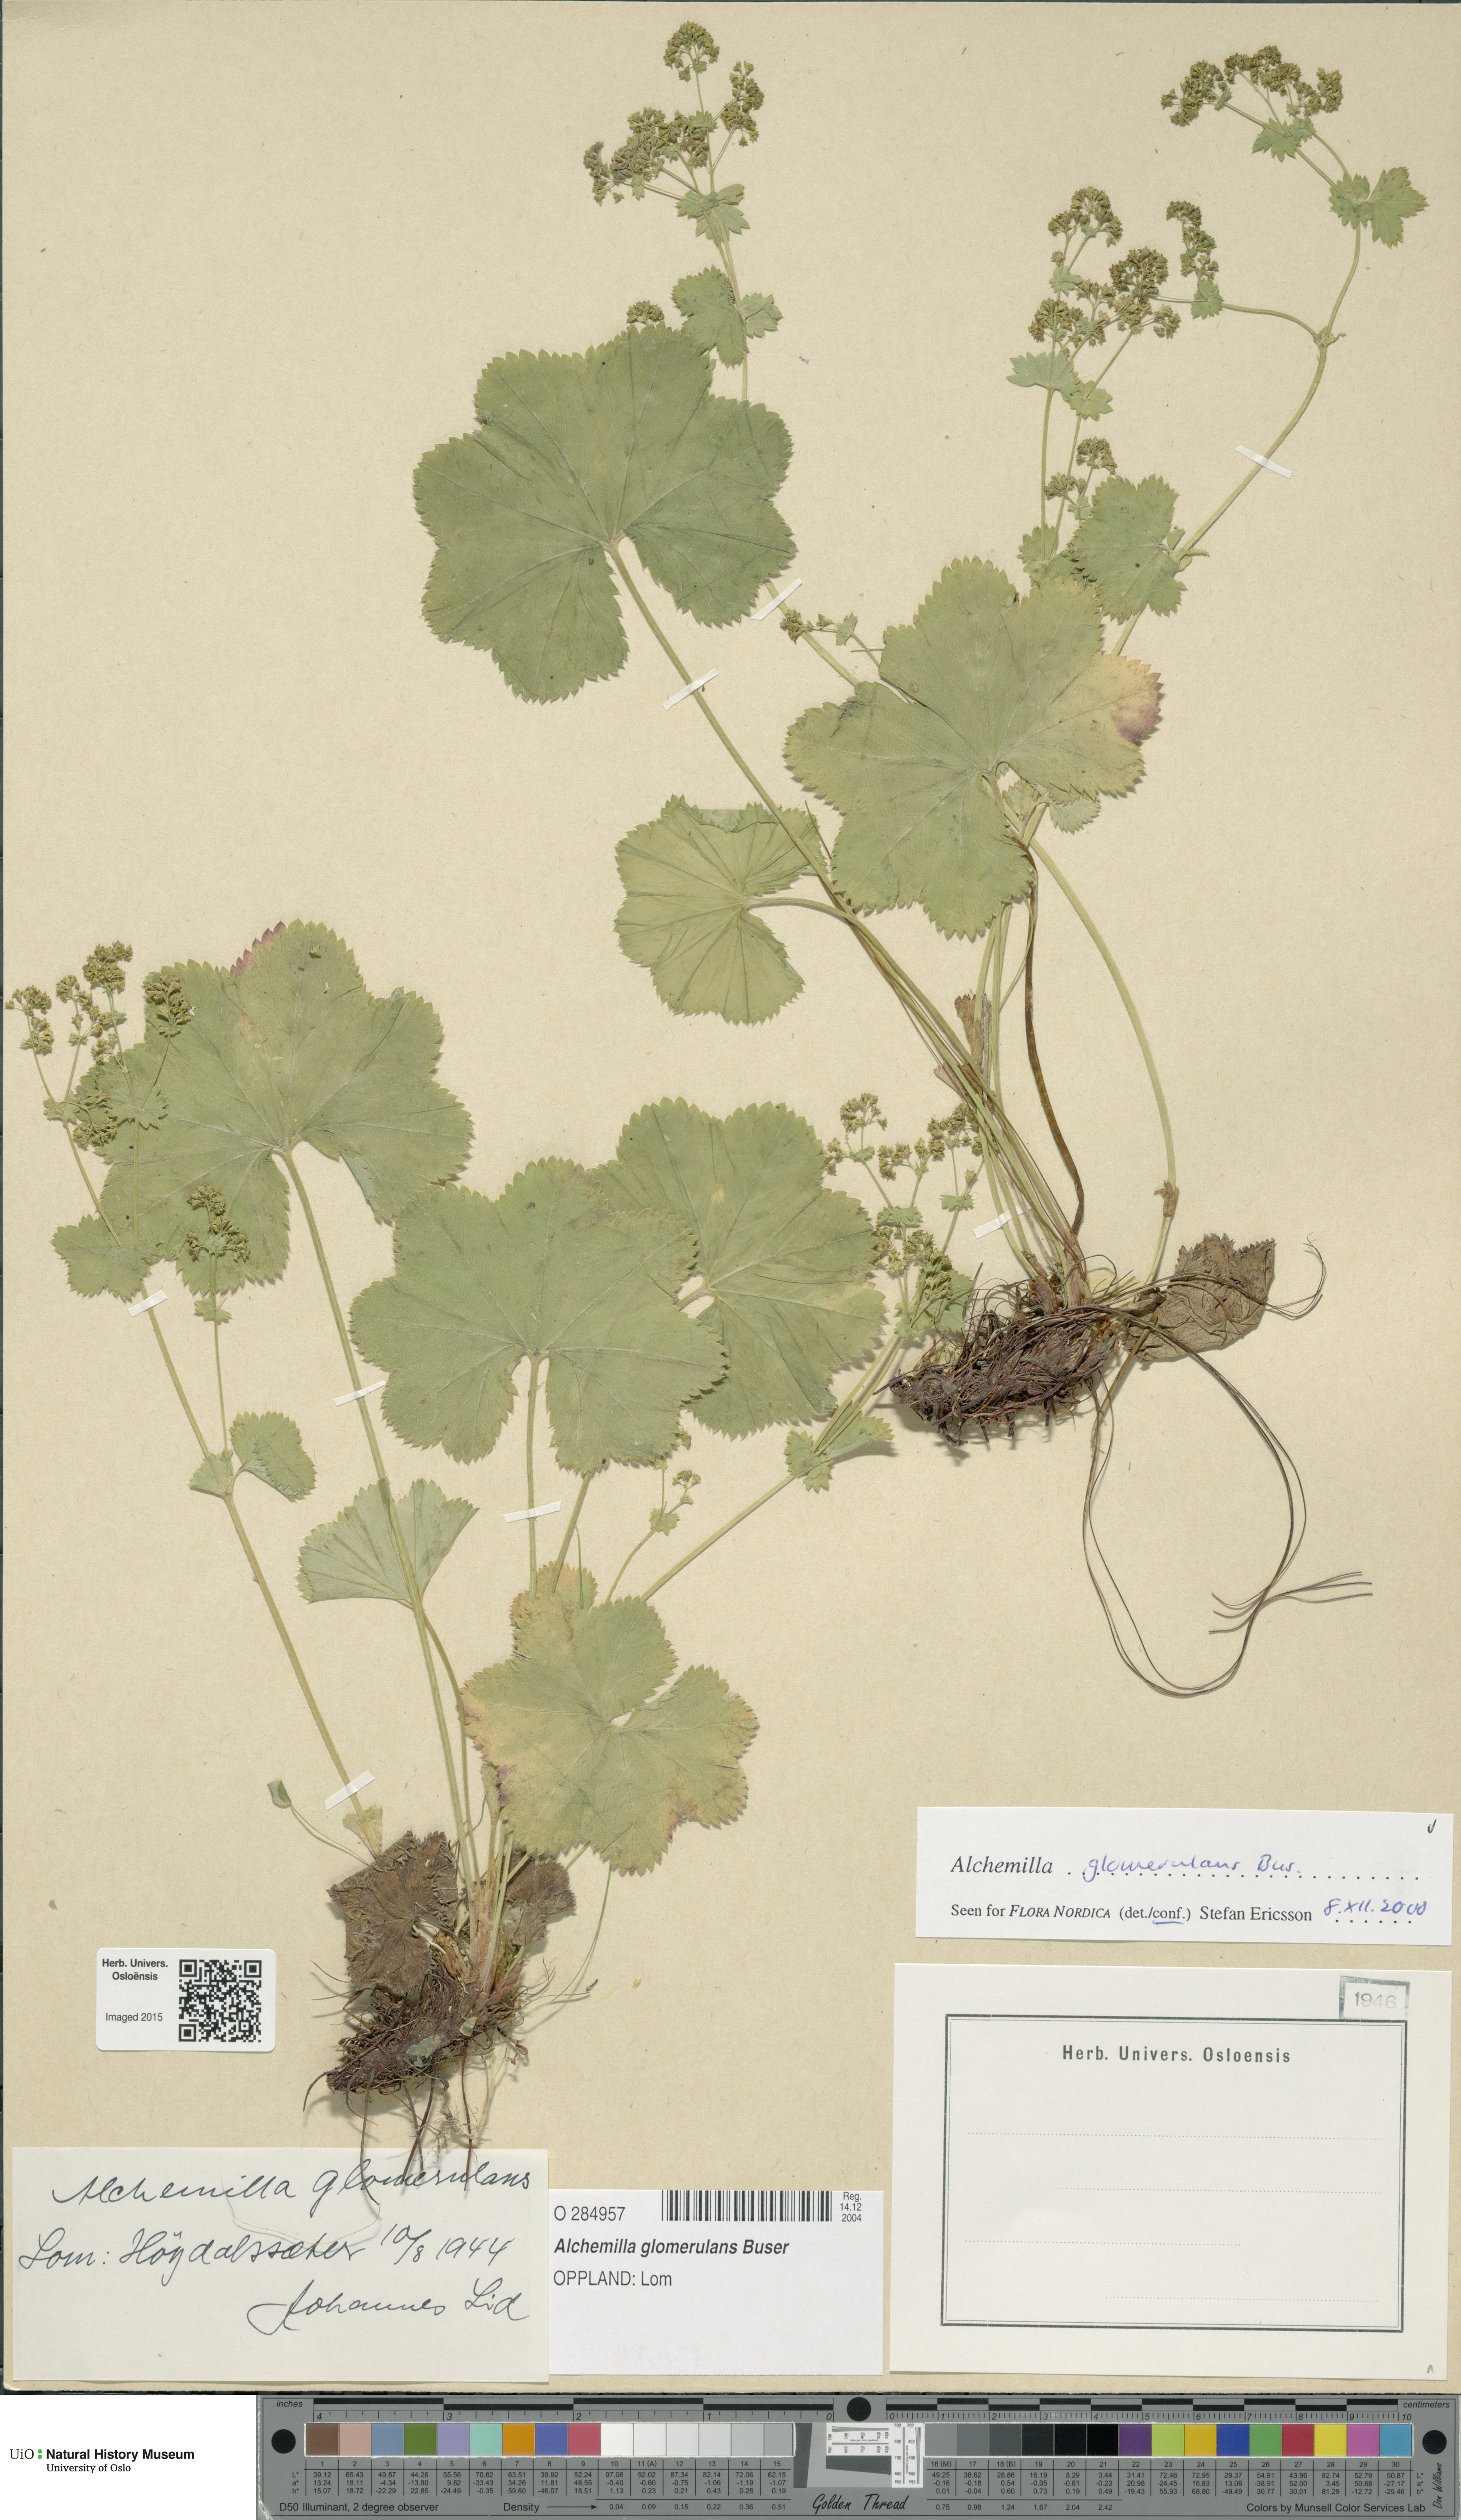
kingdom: Plantae
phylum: Tracheophyta
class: Magnoliopsida
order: Rosales
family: Rosaceae
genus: Alchemilla
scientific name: Alchemilla glomerulans
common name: Clustered lady's mantle
